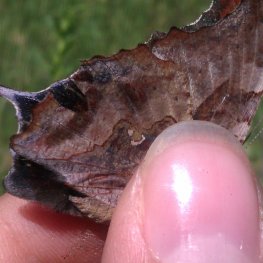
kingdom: Animalia
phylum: Arthropoda
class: Insecta
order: Lepidoptera
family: Nymphalidae
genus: Polygonia
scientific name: Polygonia interrogationis
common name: Question Mark
